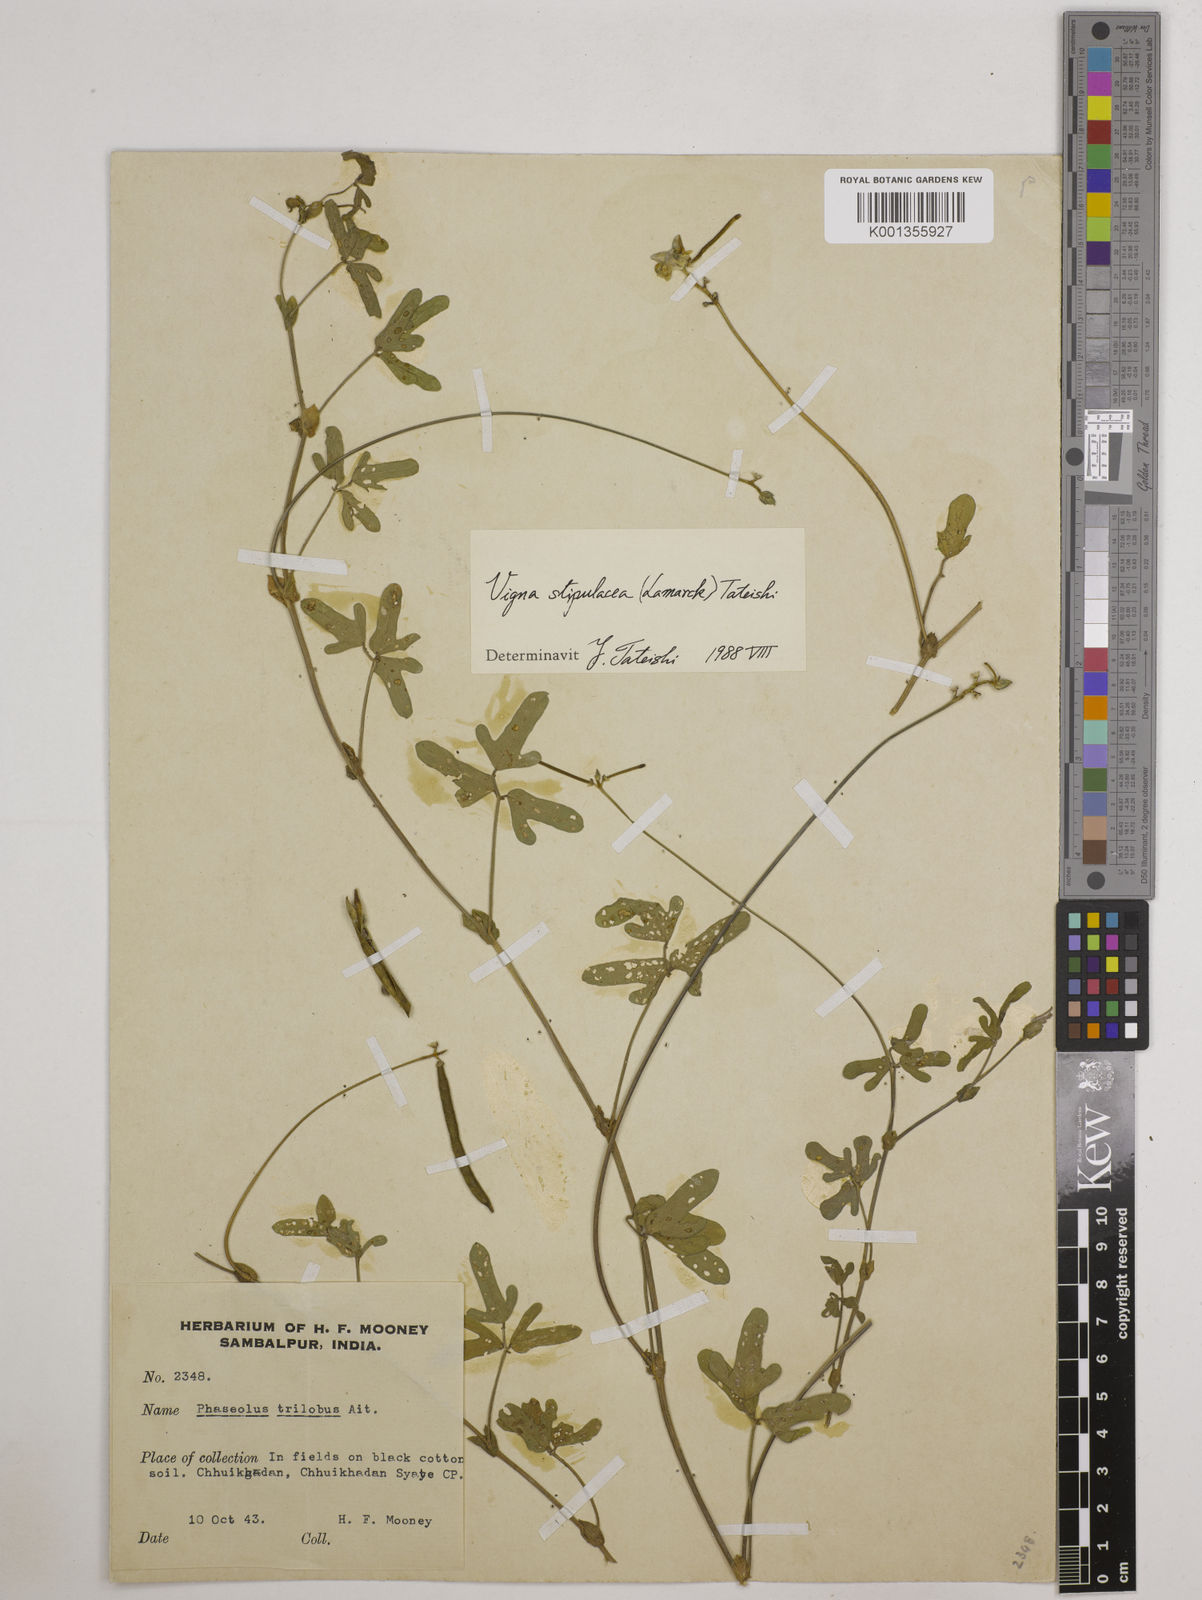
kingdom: Plantae
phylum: Tracheophyta
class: Magnoliopsida
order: Fabales
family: Fabaceae
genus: Pueraria
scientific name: Pueraria montana
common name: Kudzu
